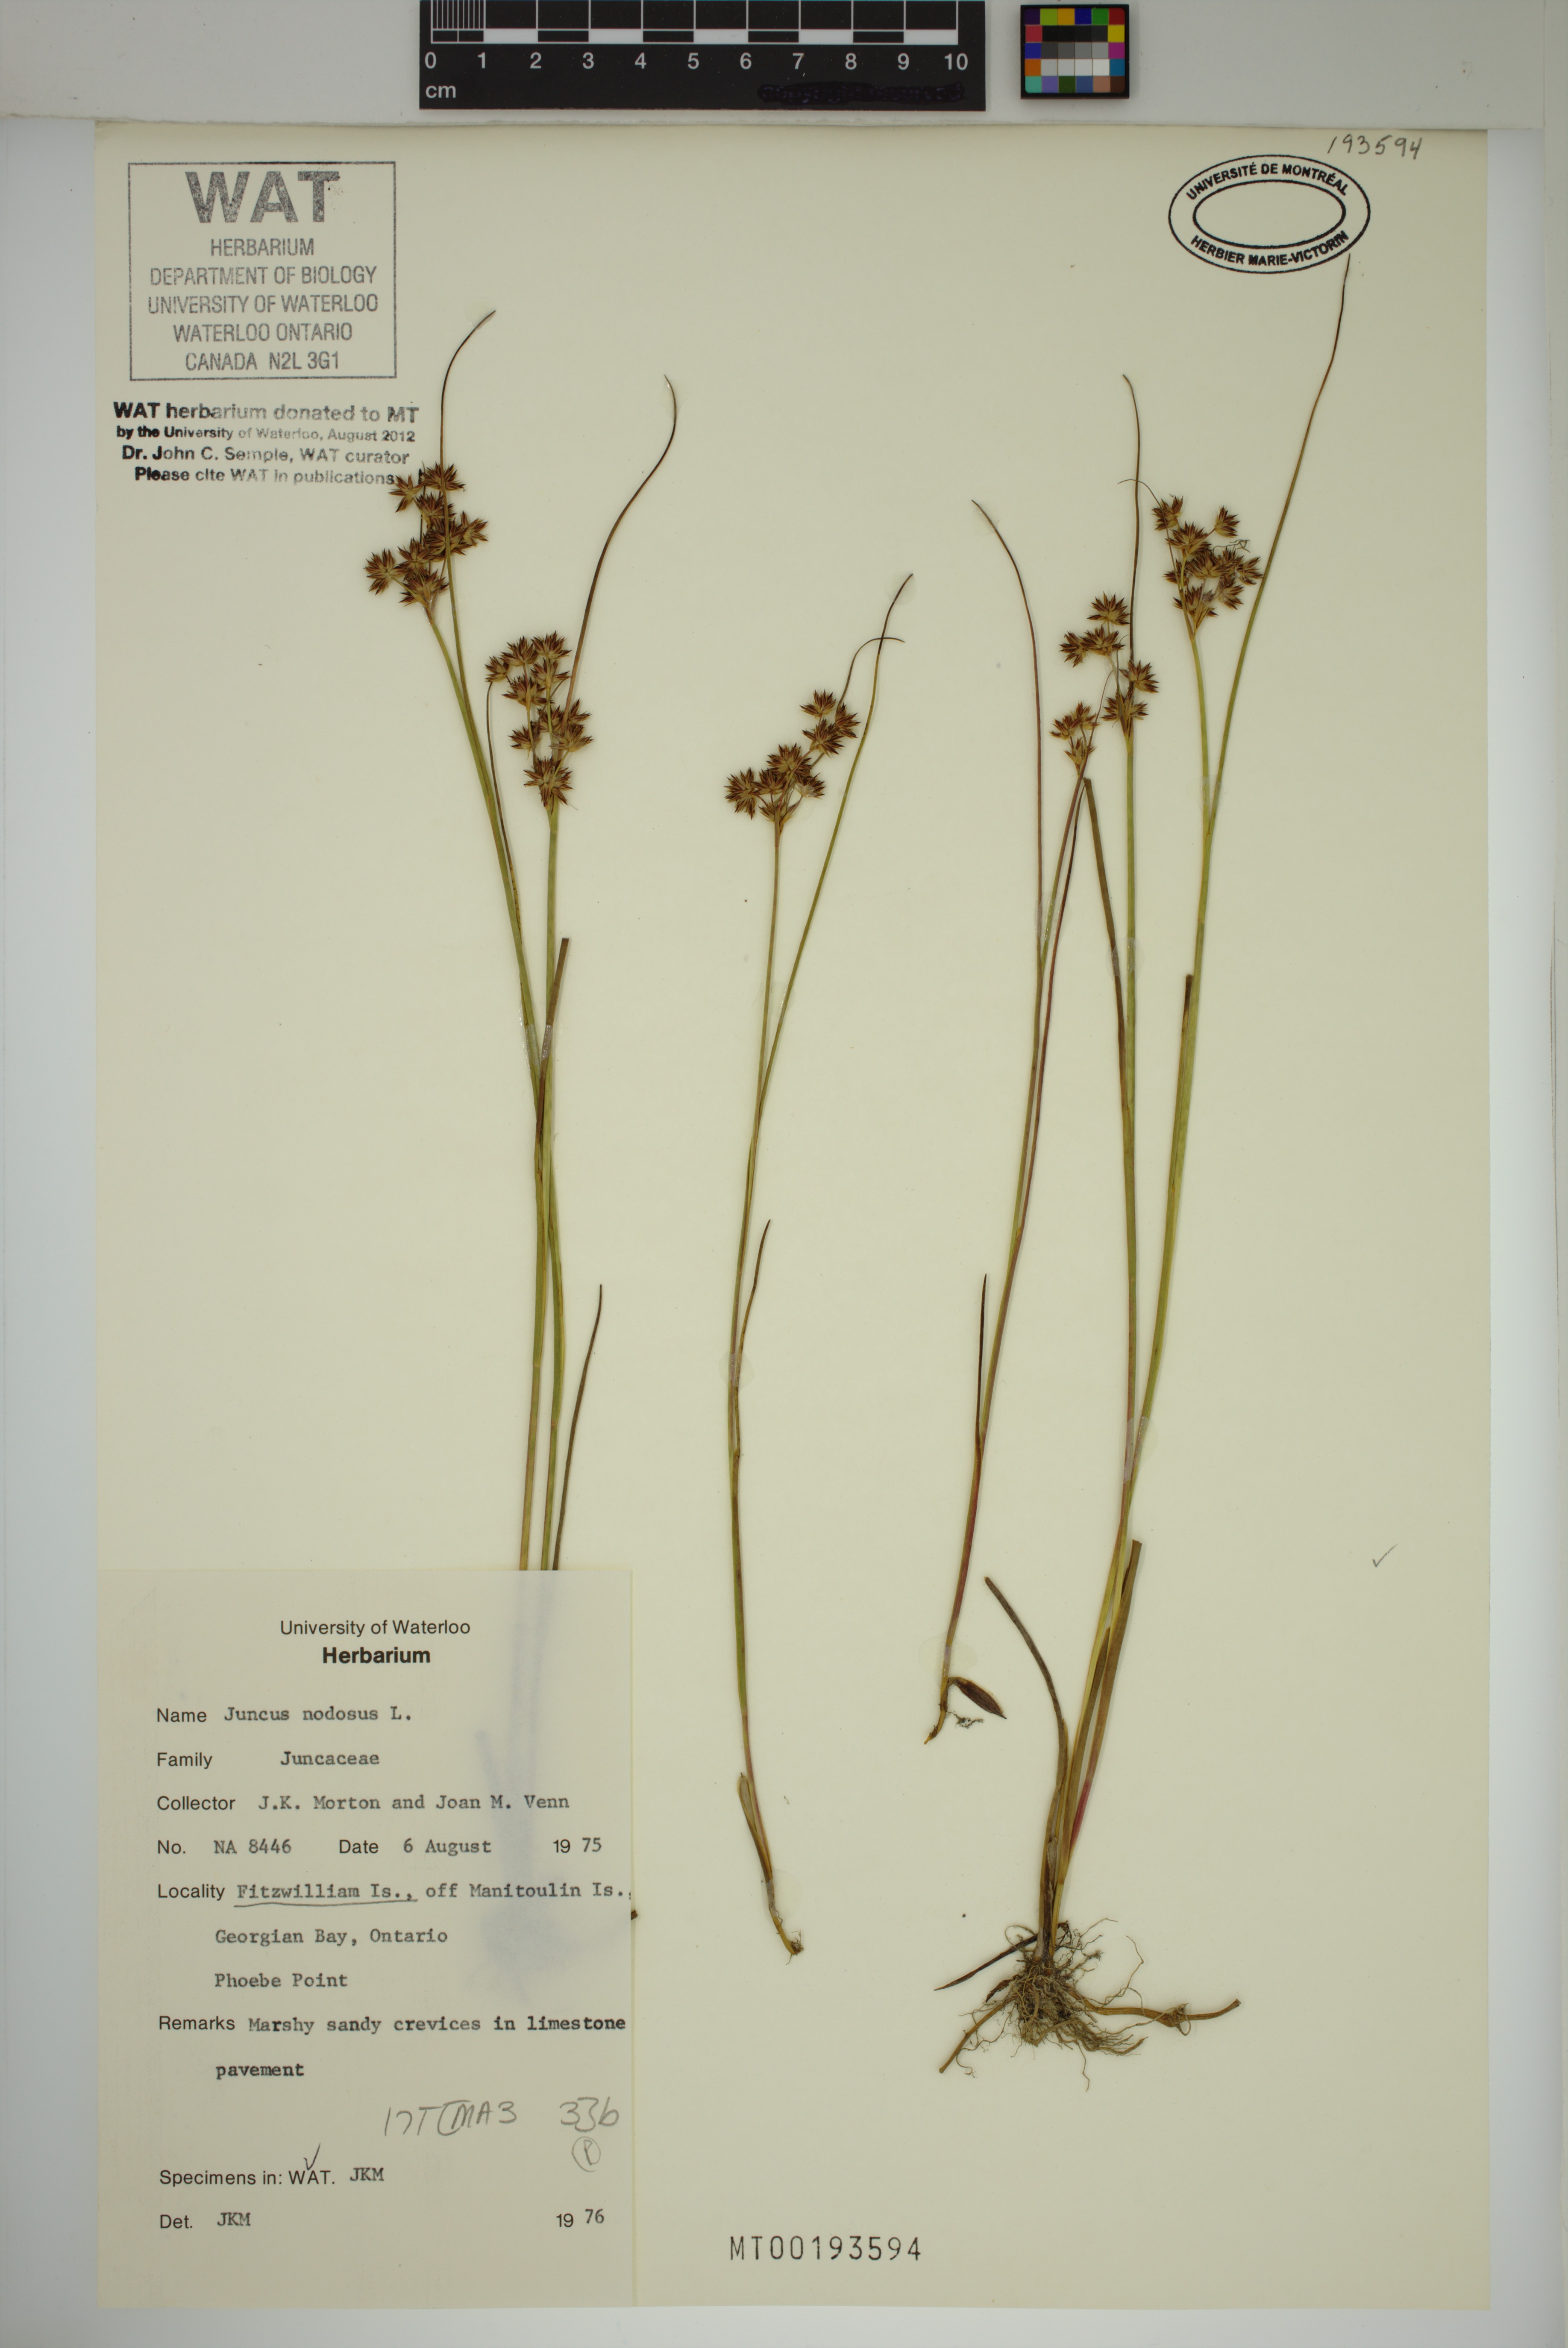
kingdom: Plantae
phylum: Tracheophyta
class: Liliopsida
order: Poales
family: Juncaceae
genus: Juncus
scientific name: Juncus nodosus
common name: Knotted rush
